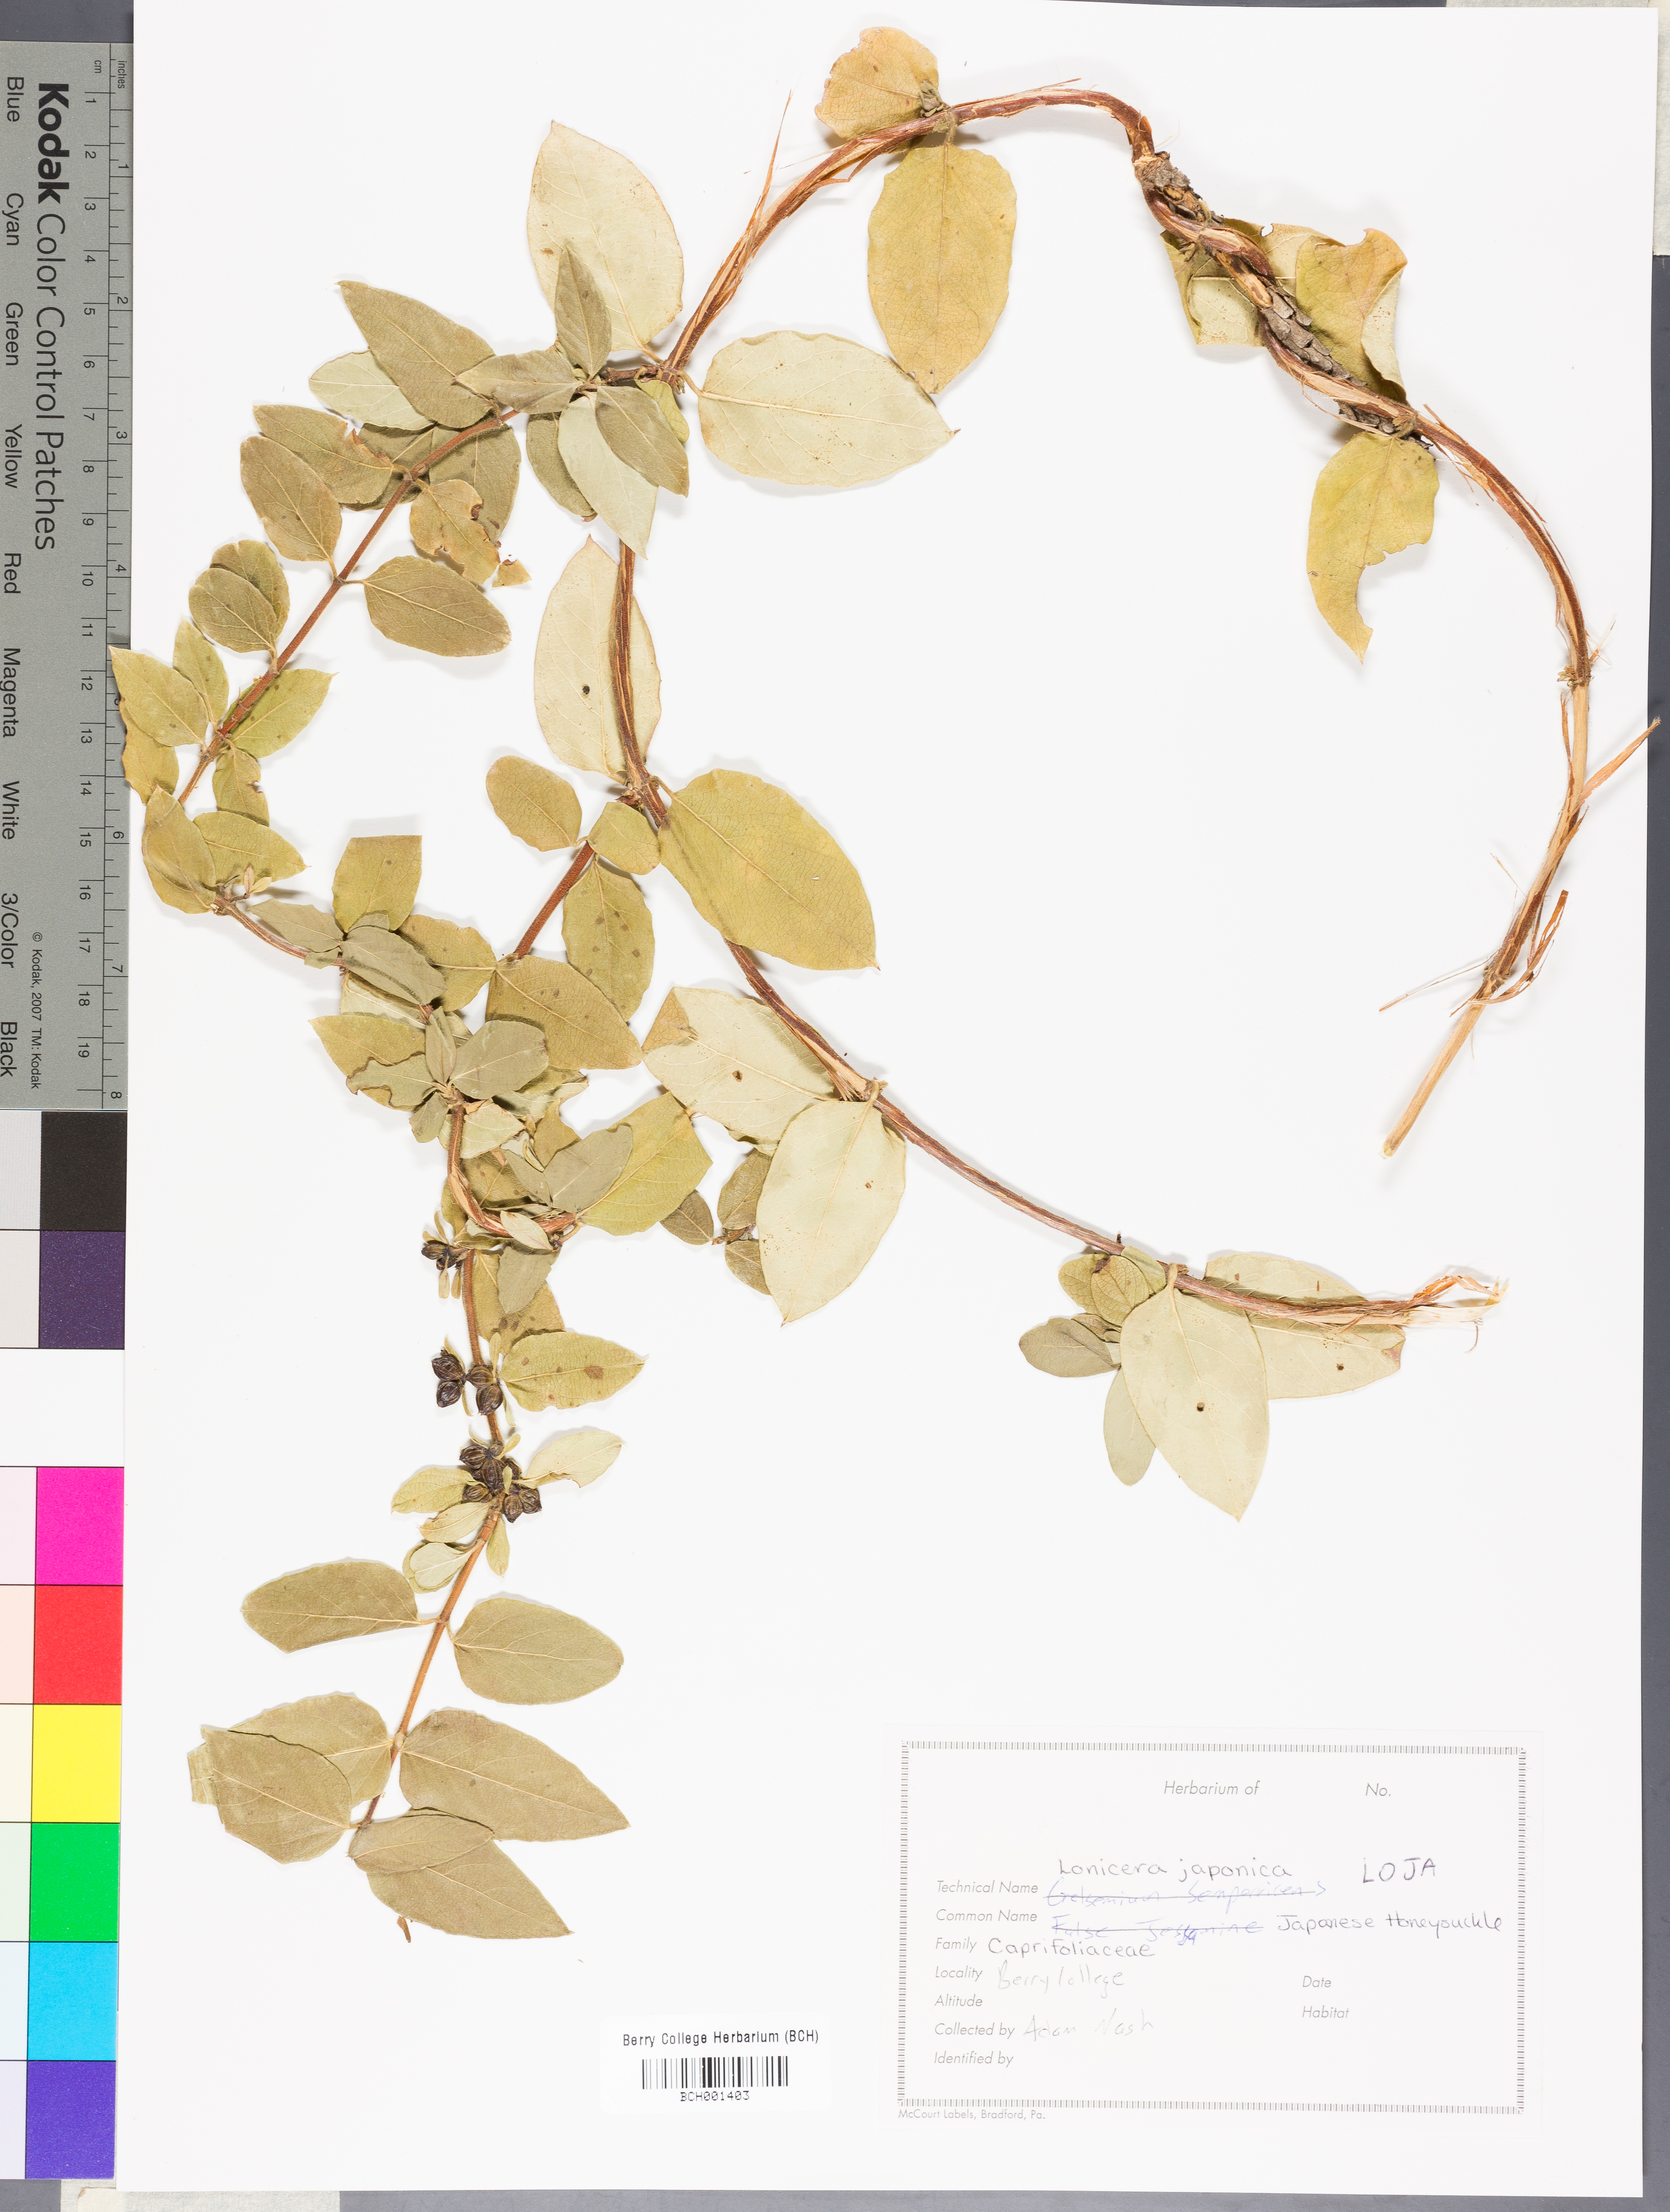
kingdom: Plantae
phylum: Tracheophyta
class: Magnoliopsida
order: Dipsacales
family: Caprifoliaceae
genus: Lonicera
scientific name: Lonicera japonica
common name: Japanese honeysuckle
